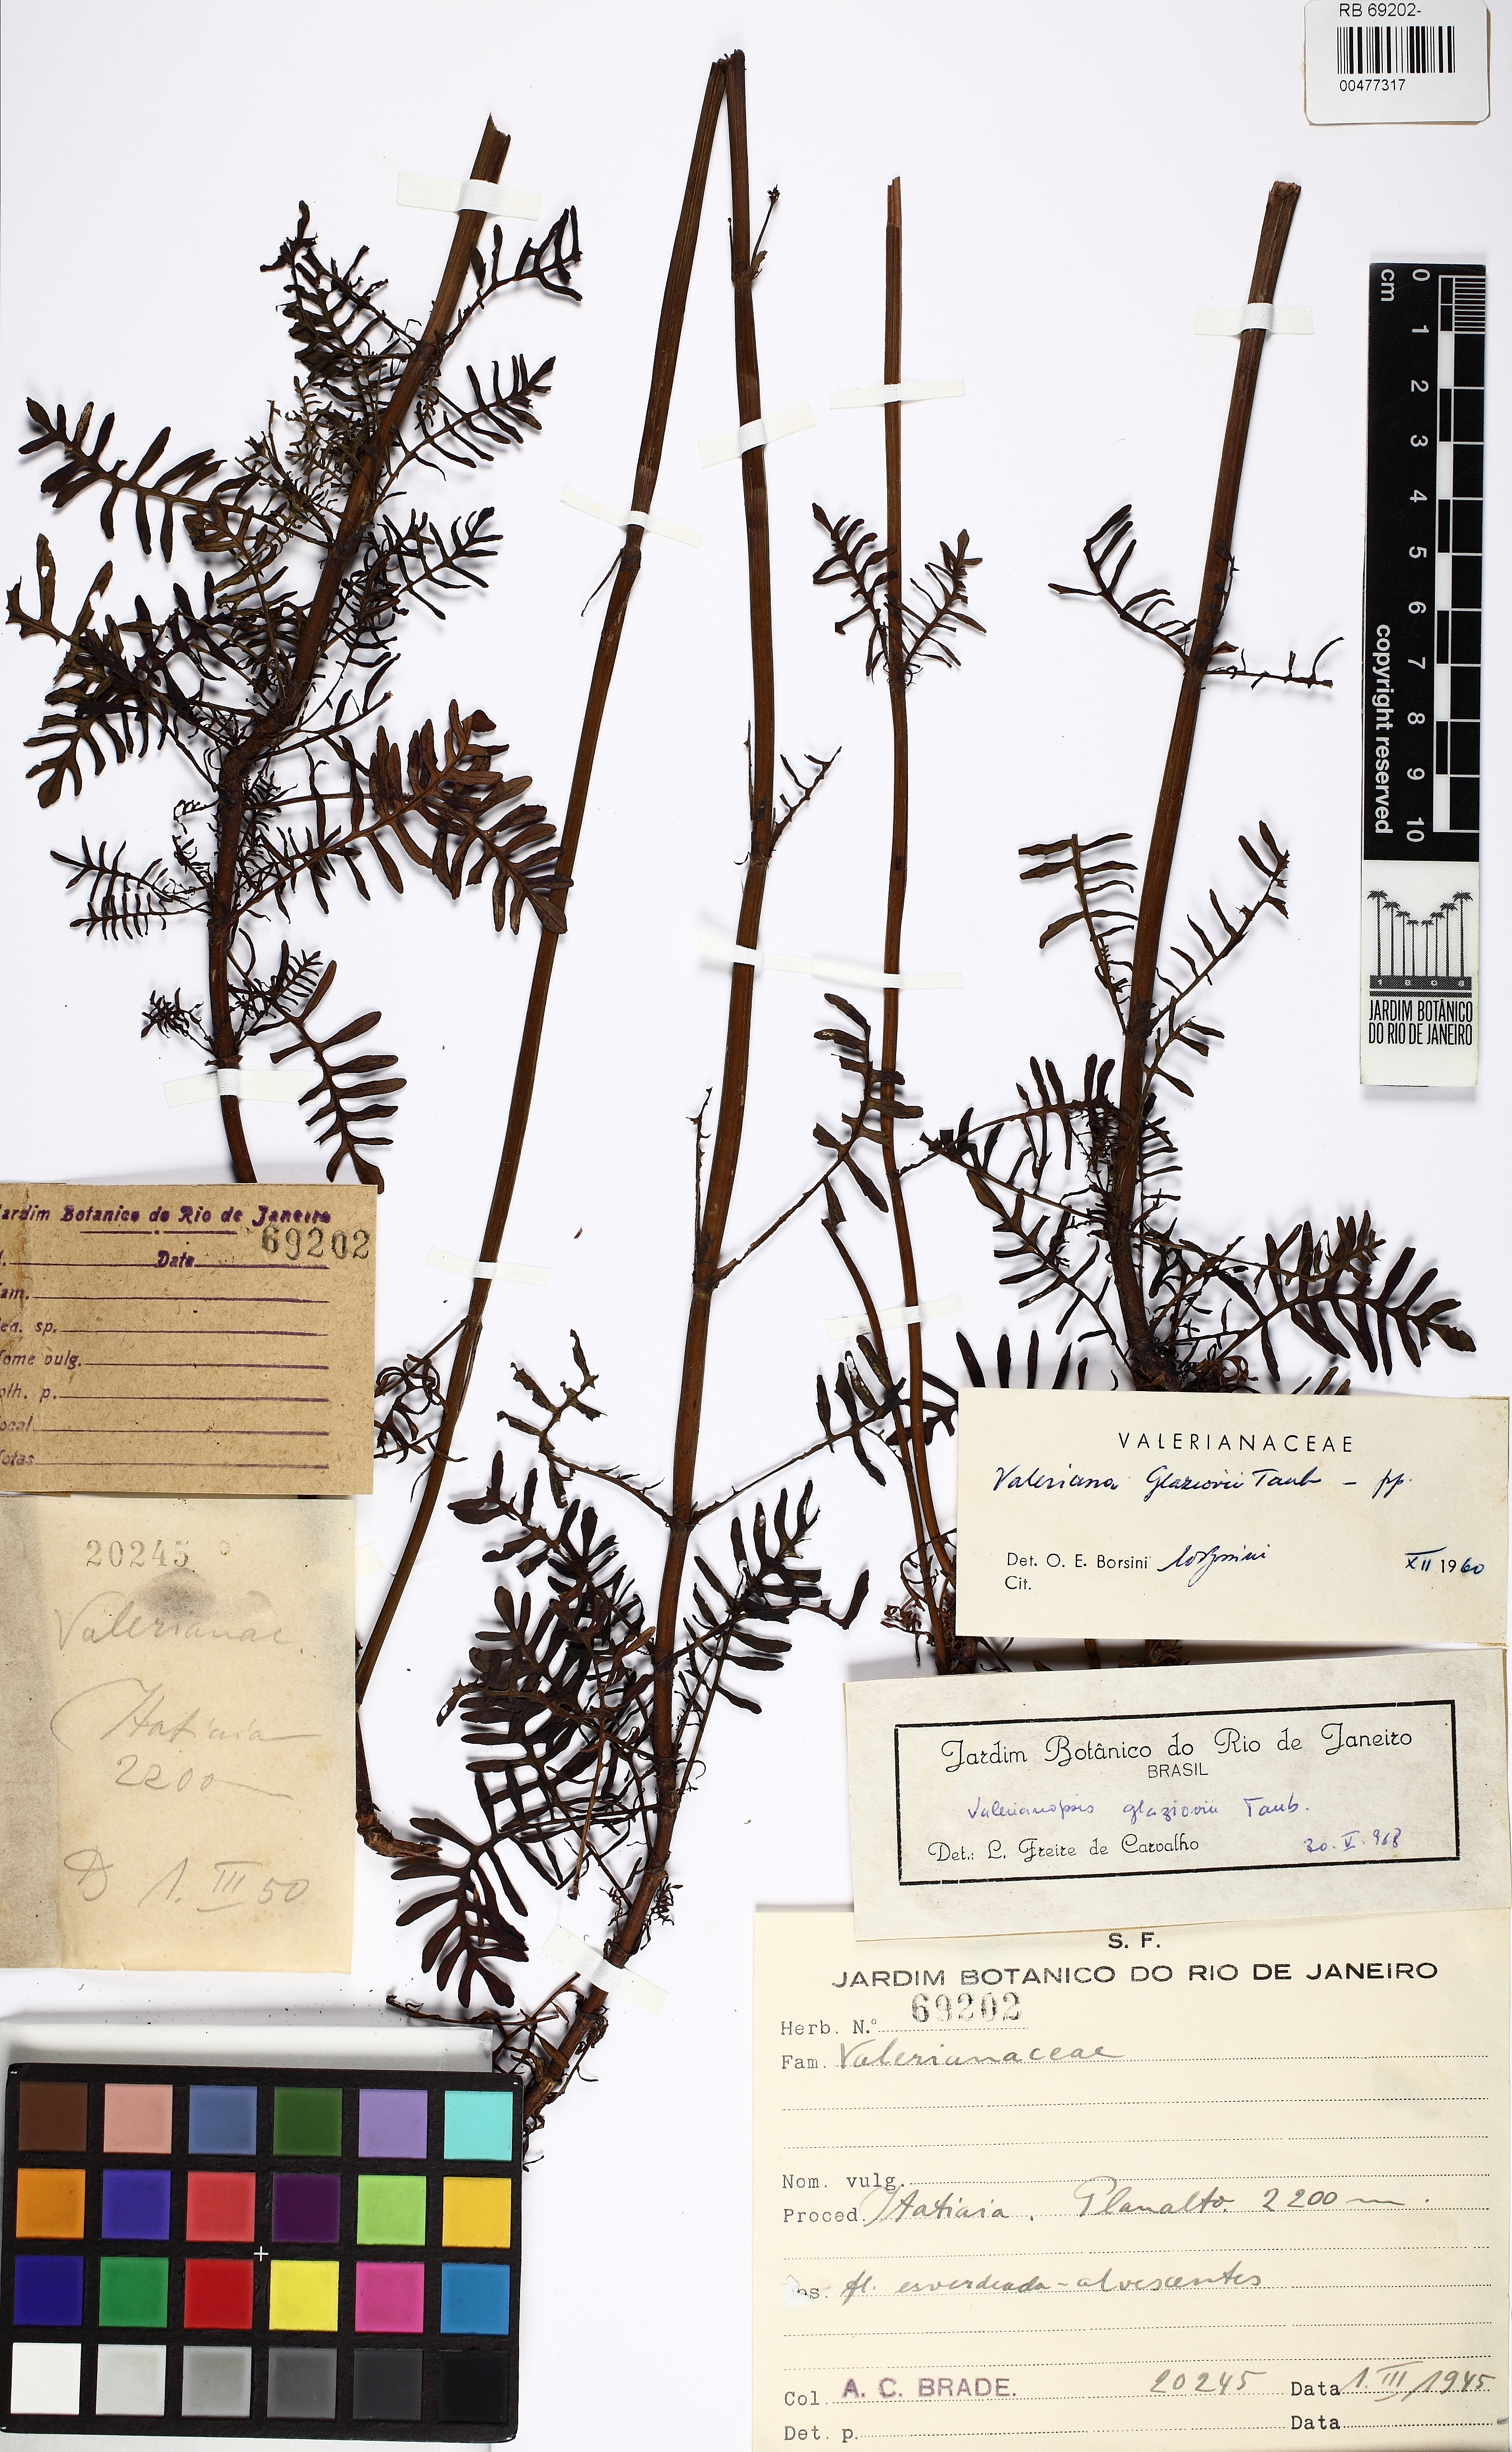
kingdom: Plantae
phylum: Tracheophyta
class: Magnoliopsida
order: Dipsacales
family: Caprifoliaceae
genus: Valeriana
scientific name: Valeriana glaziovii
